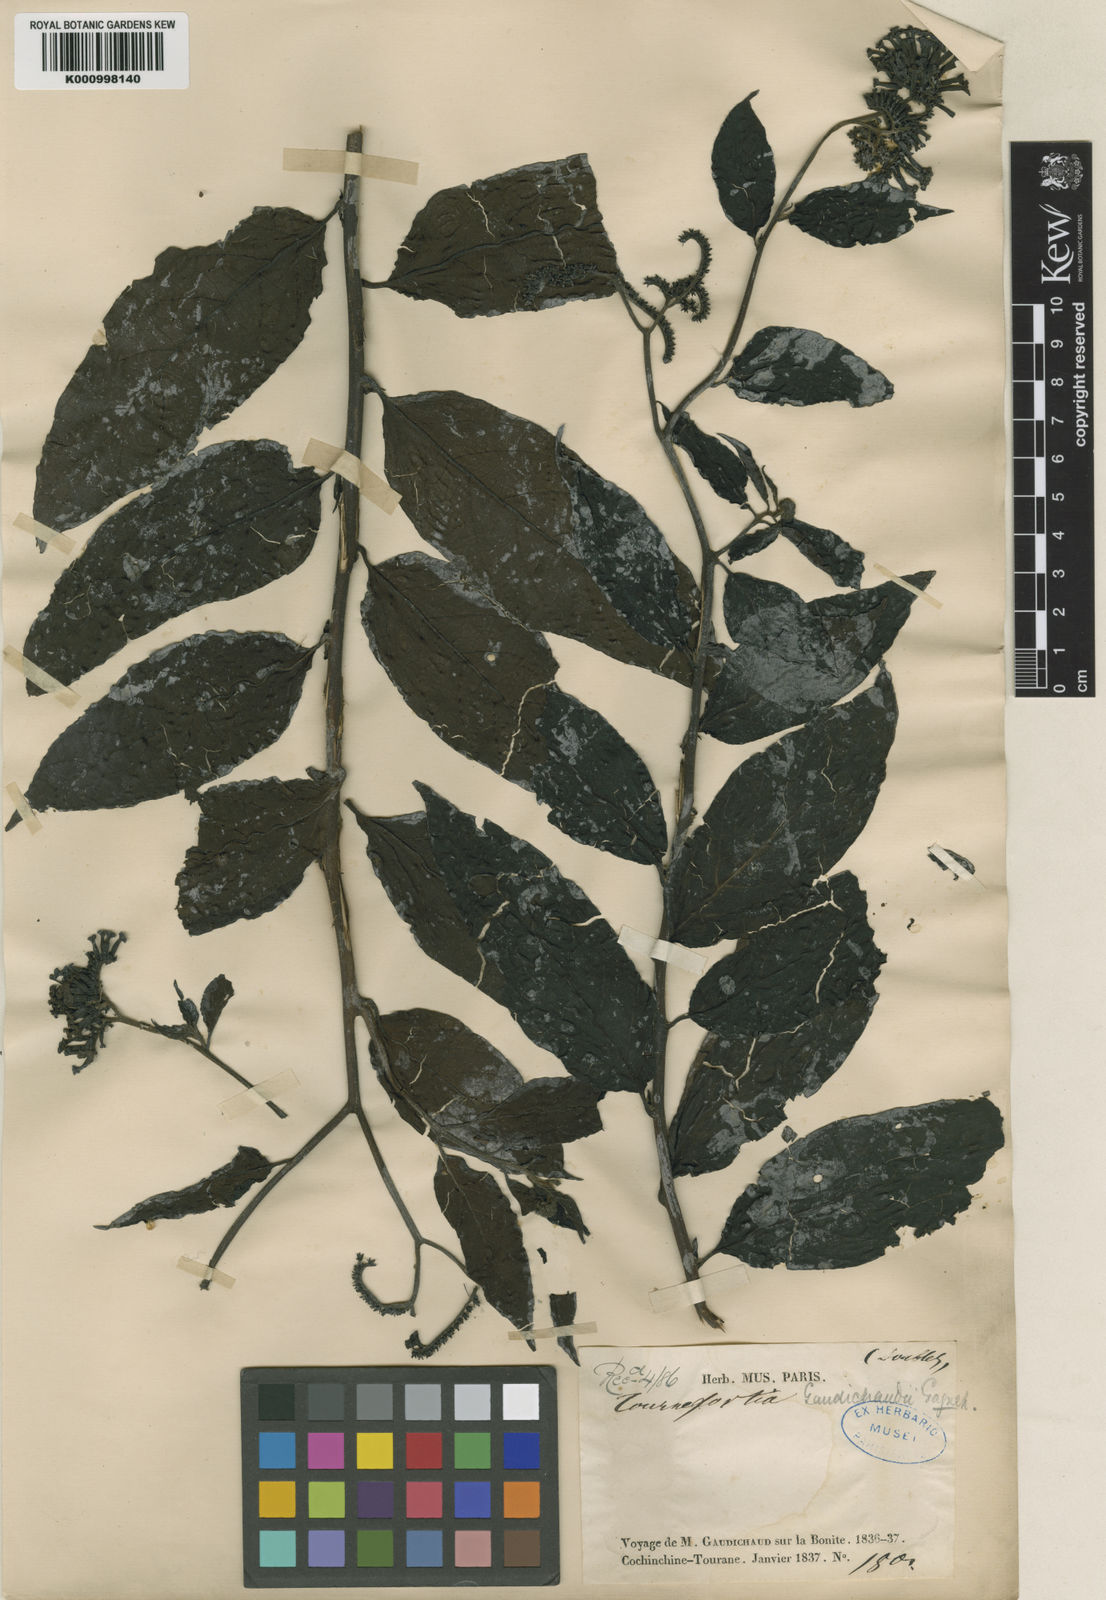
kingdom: Plantae
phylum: Tracheophyta
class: Magnoliopsida
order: Boraginales
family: Heliotropiaceae
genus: Tournefortia
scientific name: Tournefortia montana
